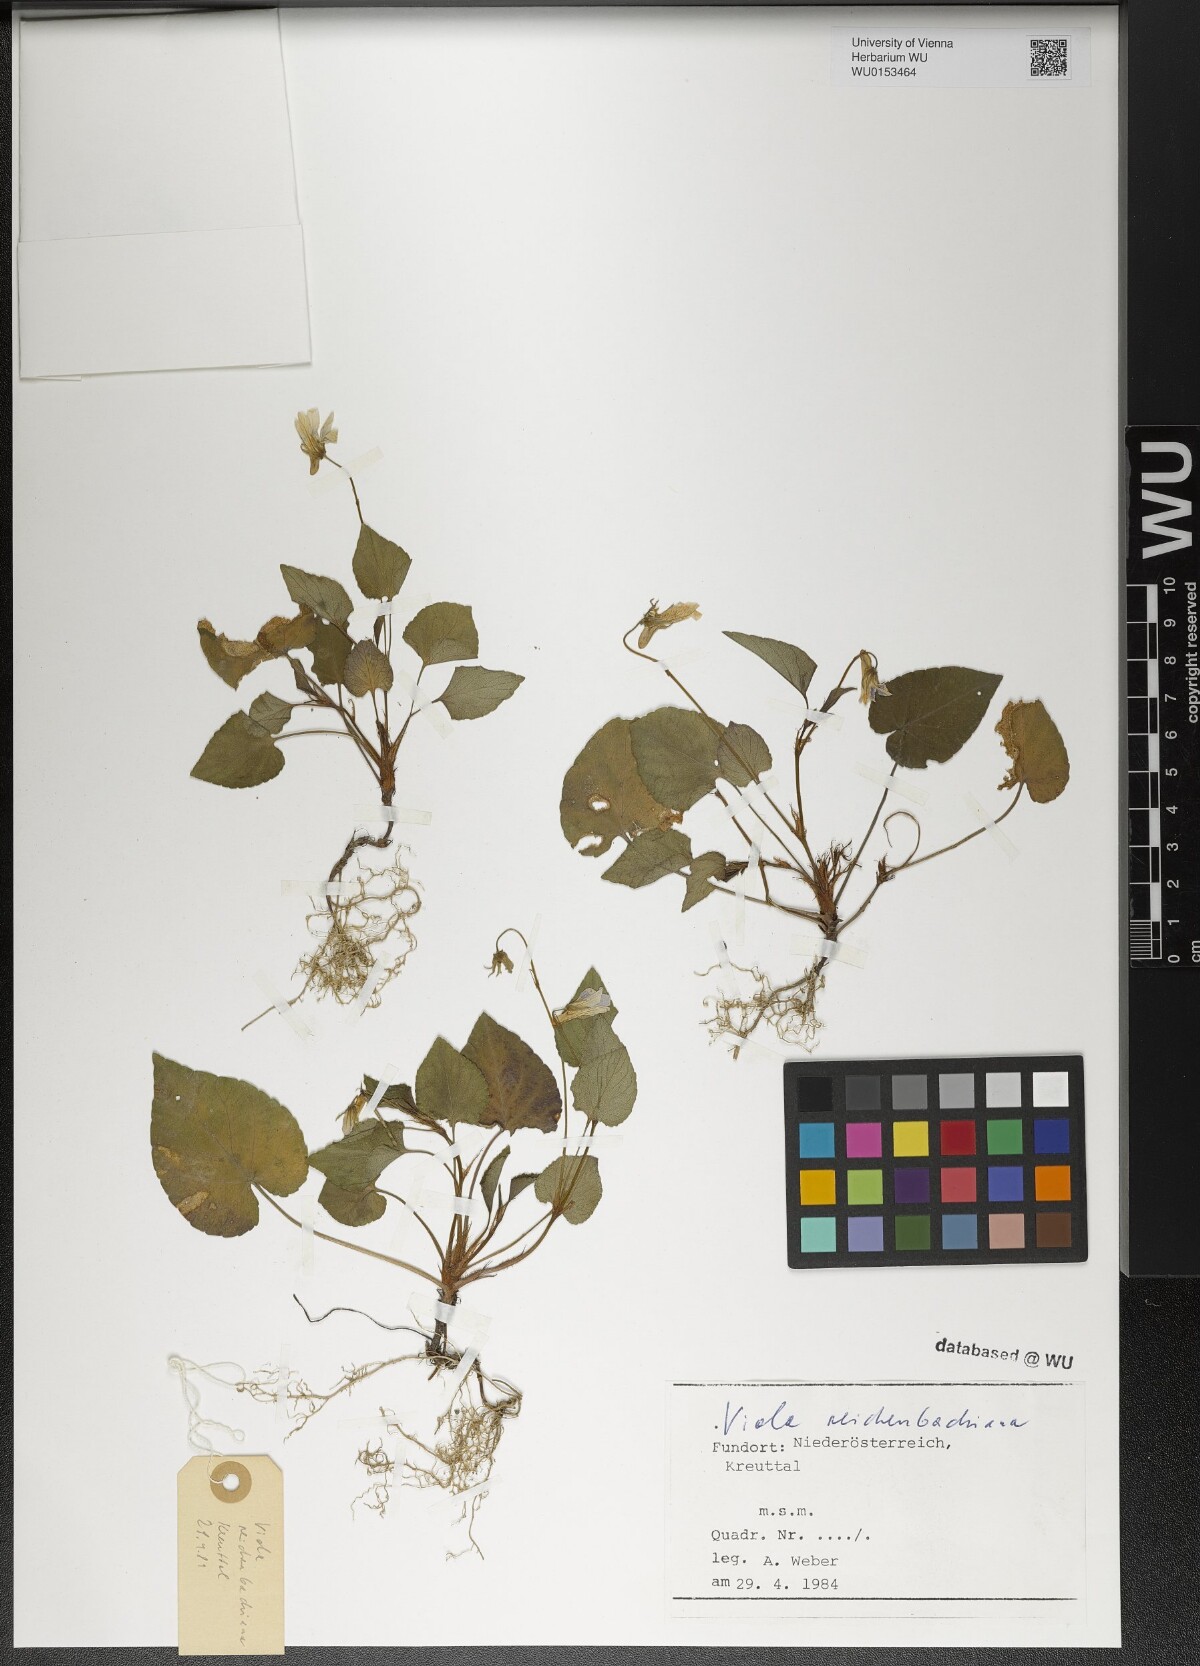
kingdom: Plantae
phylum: Tracheophyta
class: Magnoliopsida
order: Malpighiales
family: Violaceae
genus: Viola
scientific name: Viola reichenbachiana
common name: Early dog-violet
